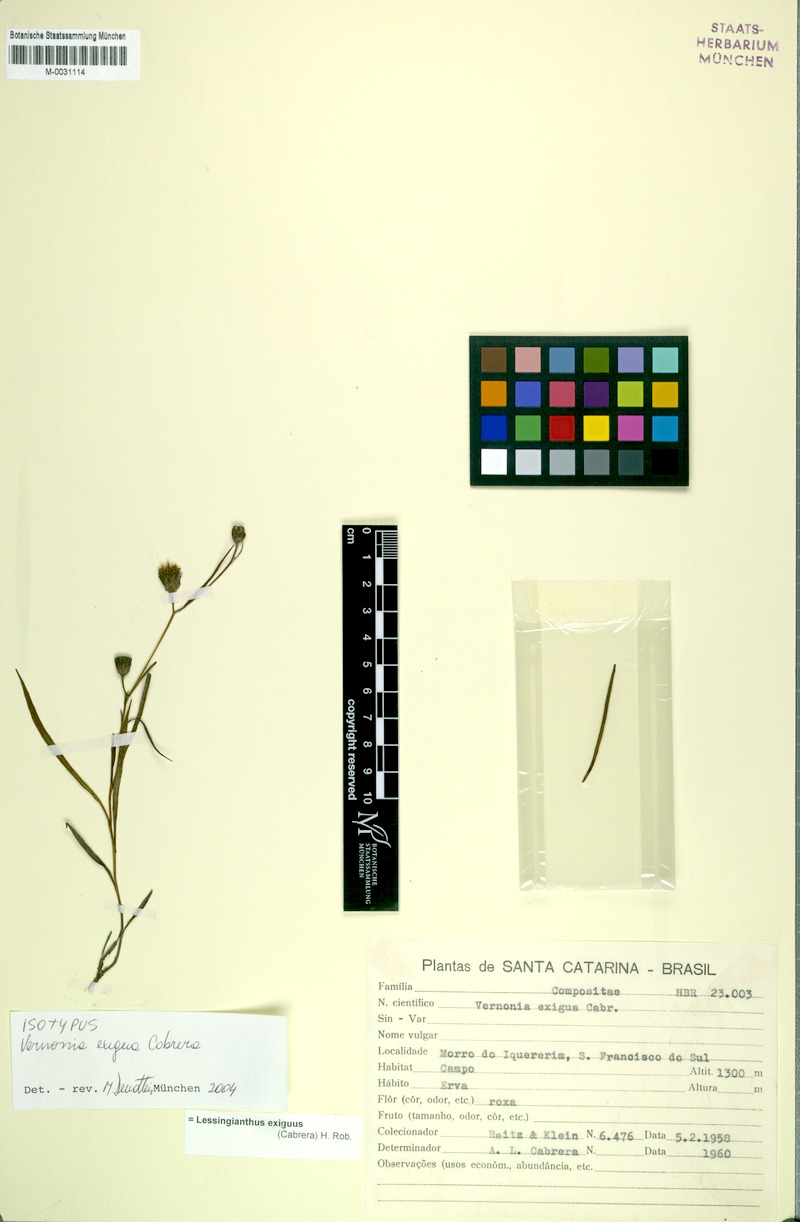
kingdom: Plantae
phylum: Tracheophyta
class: Magnoliopsida
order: Asterales
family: Asteraceae
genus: Lessingianthus
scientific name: Lessingianthus exiguus
